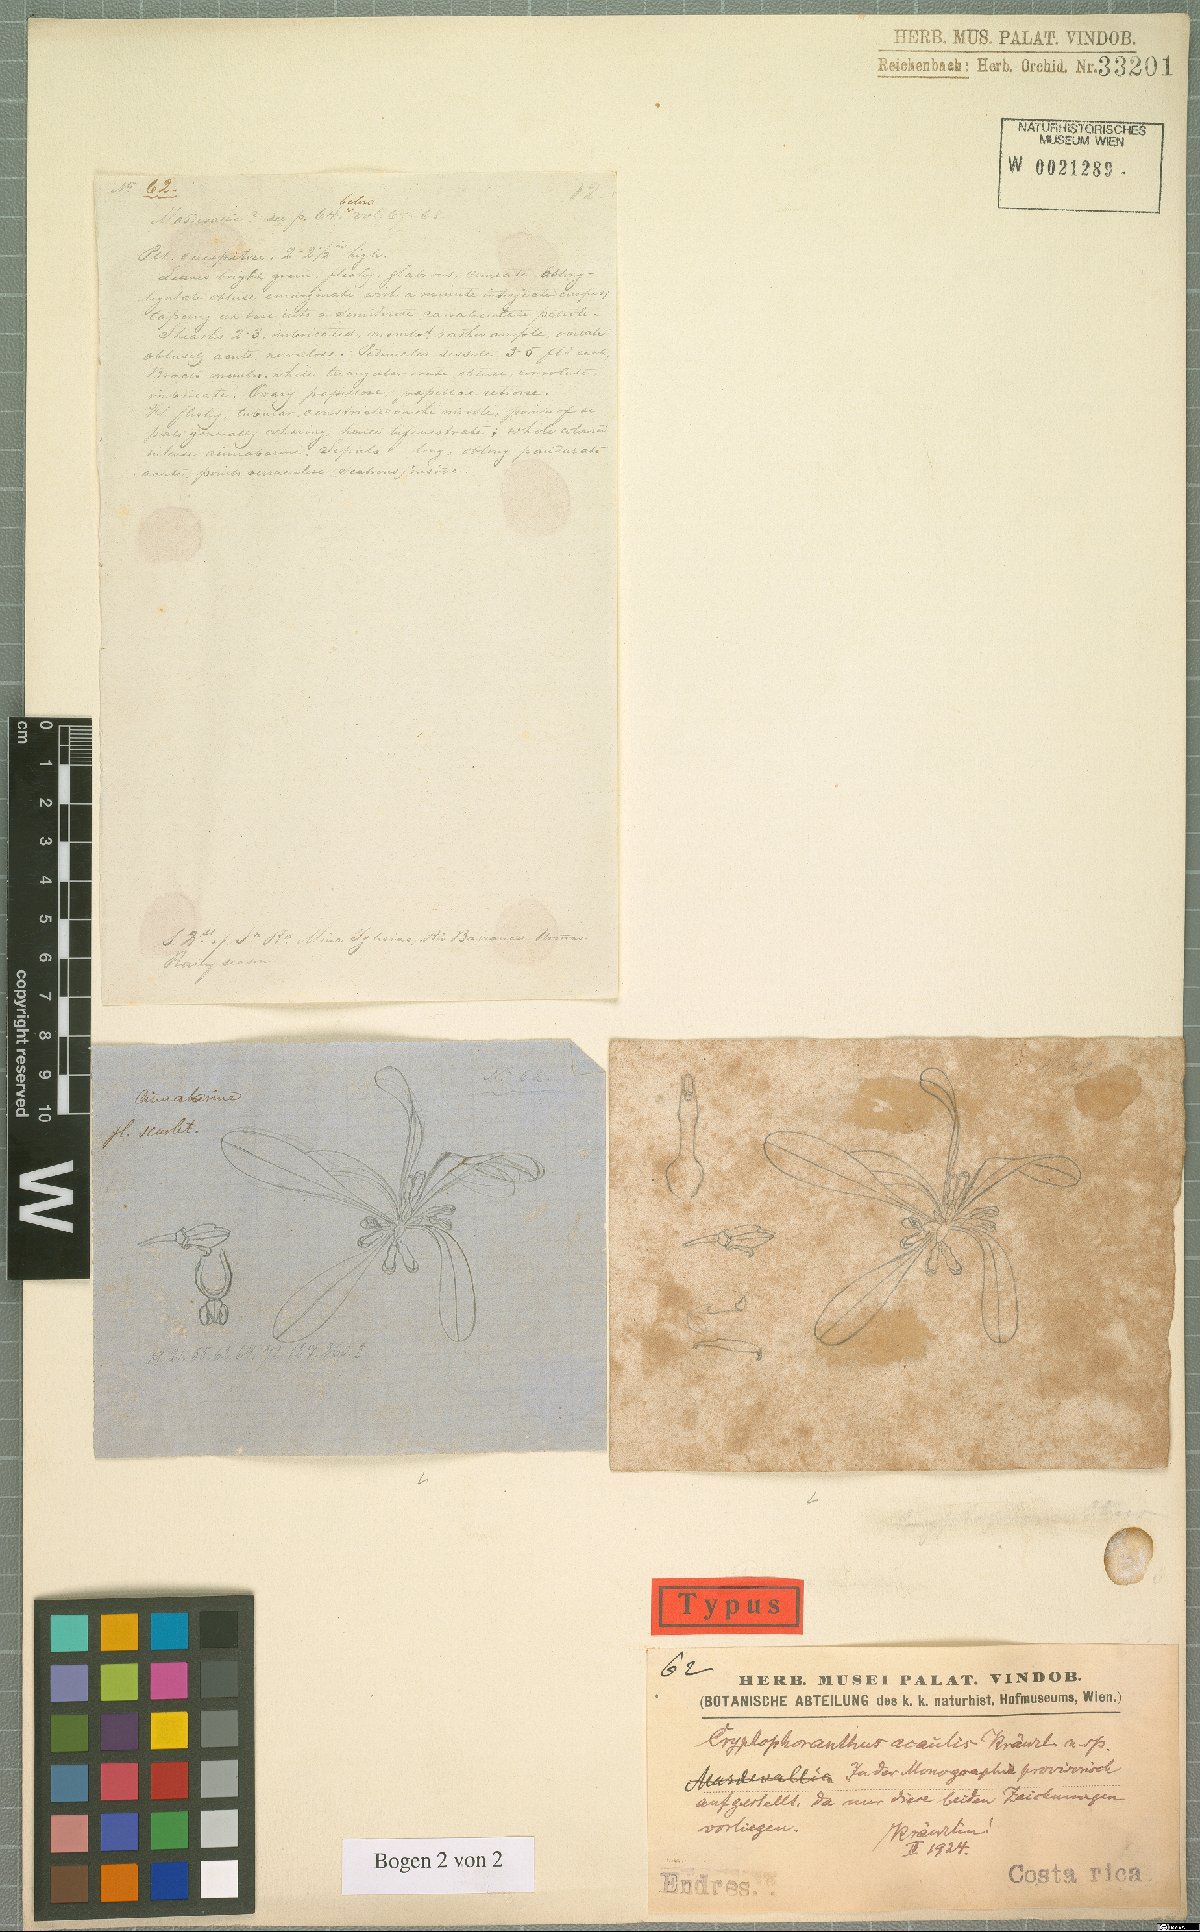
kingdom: Plantae
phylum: Tracheophyta
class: Liliopsida
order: Asparagales
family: Orchidaceae
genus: Specklinia
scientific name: Specklinia tribuloides
